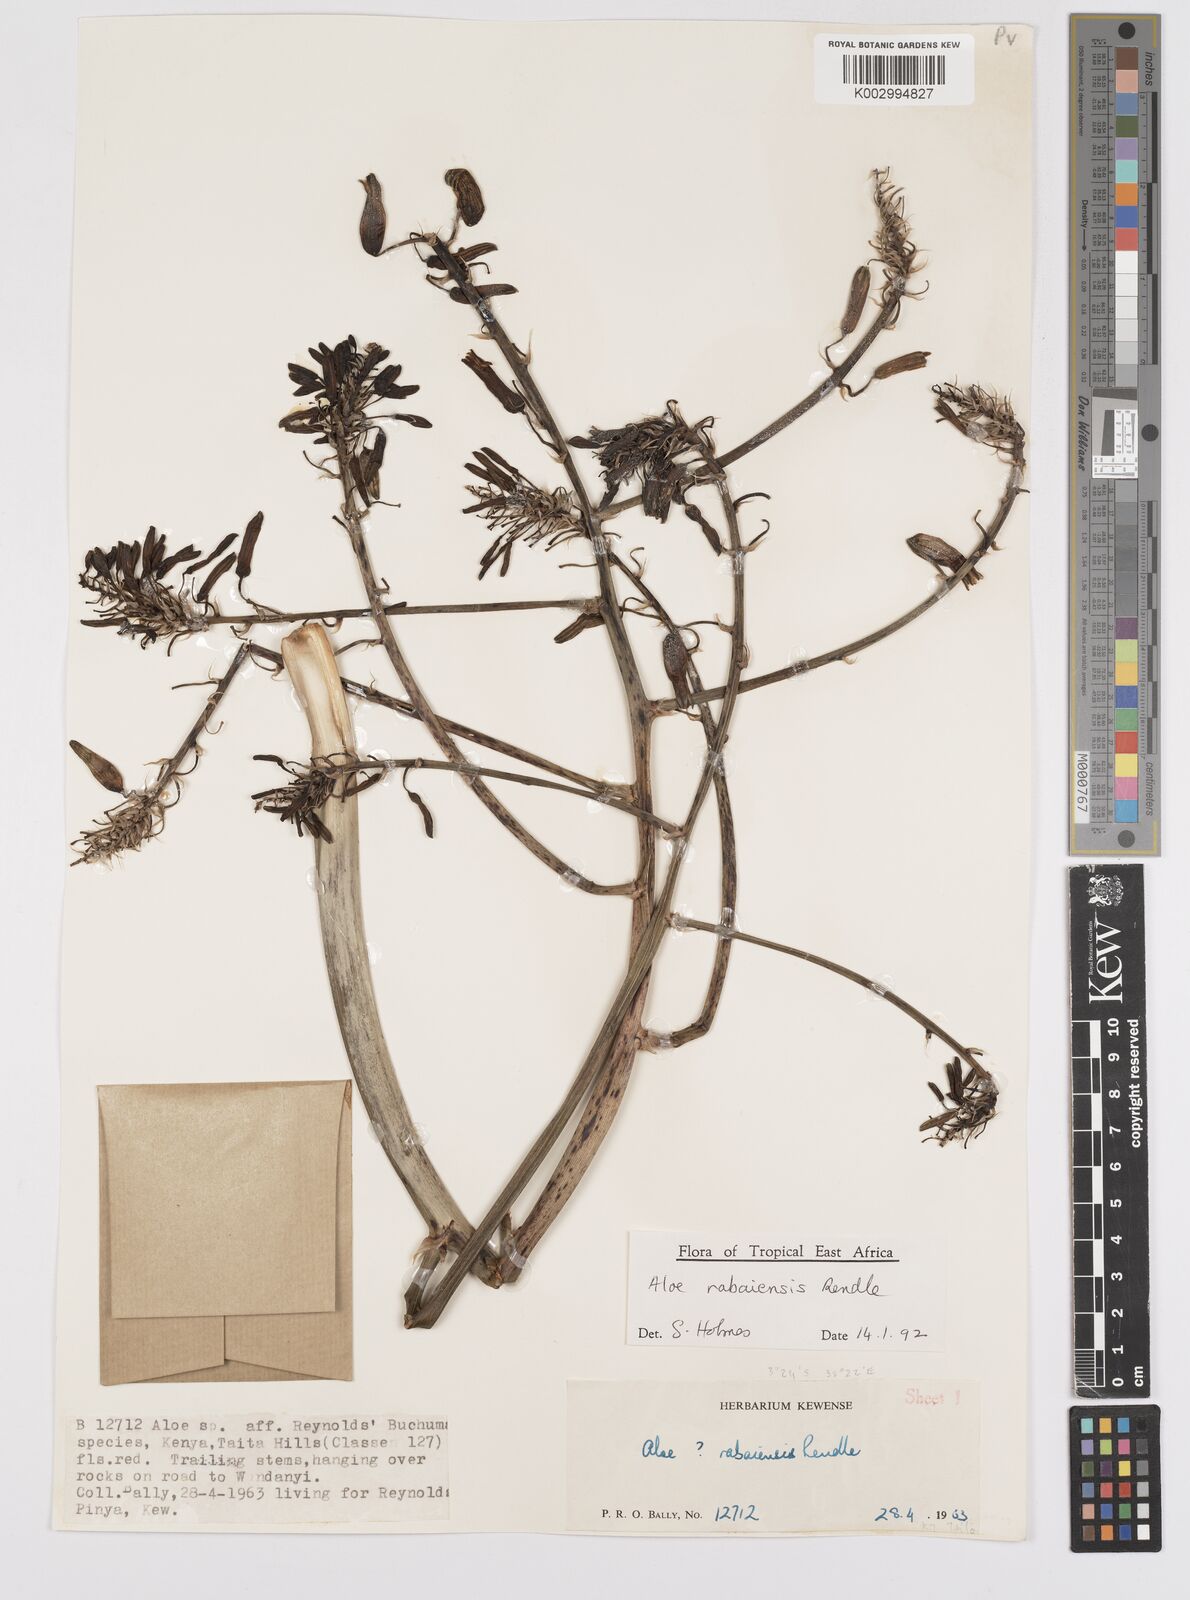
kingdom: Plantae
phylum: Tracheophyta
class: Liliopsida
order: Asparagales
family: Asphodelaceae
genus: Aloe
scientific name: Aloe rabaiensis
